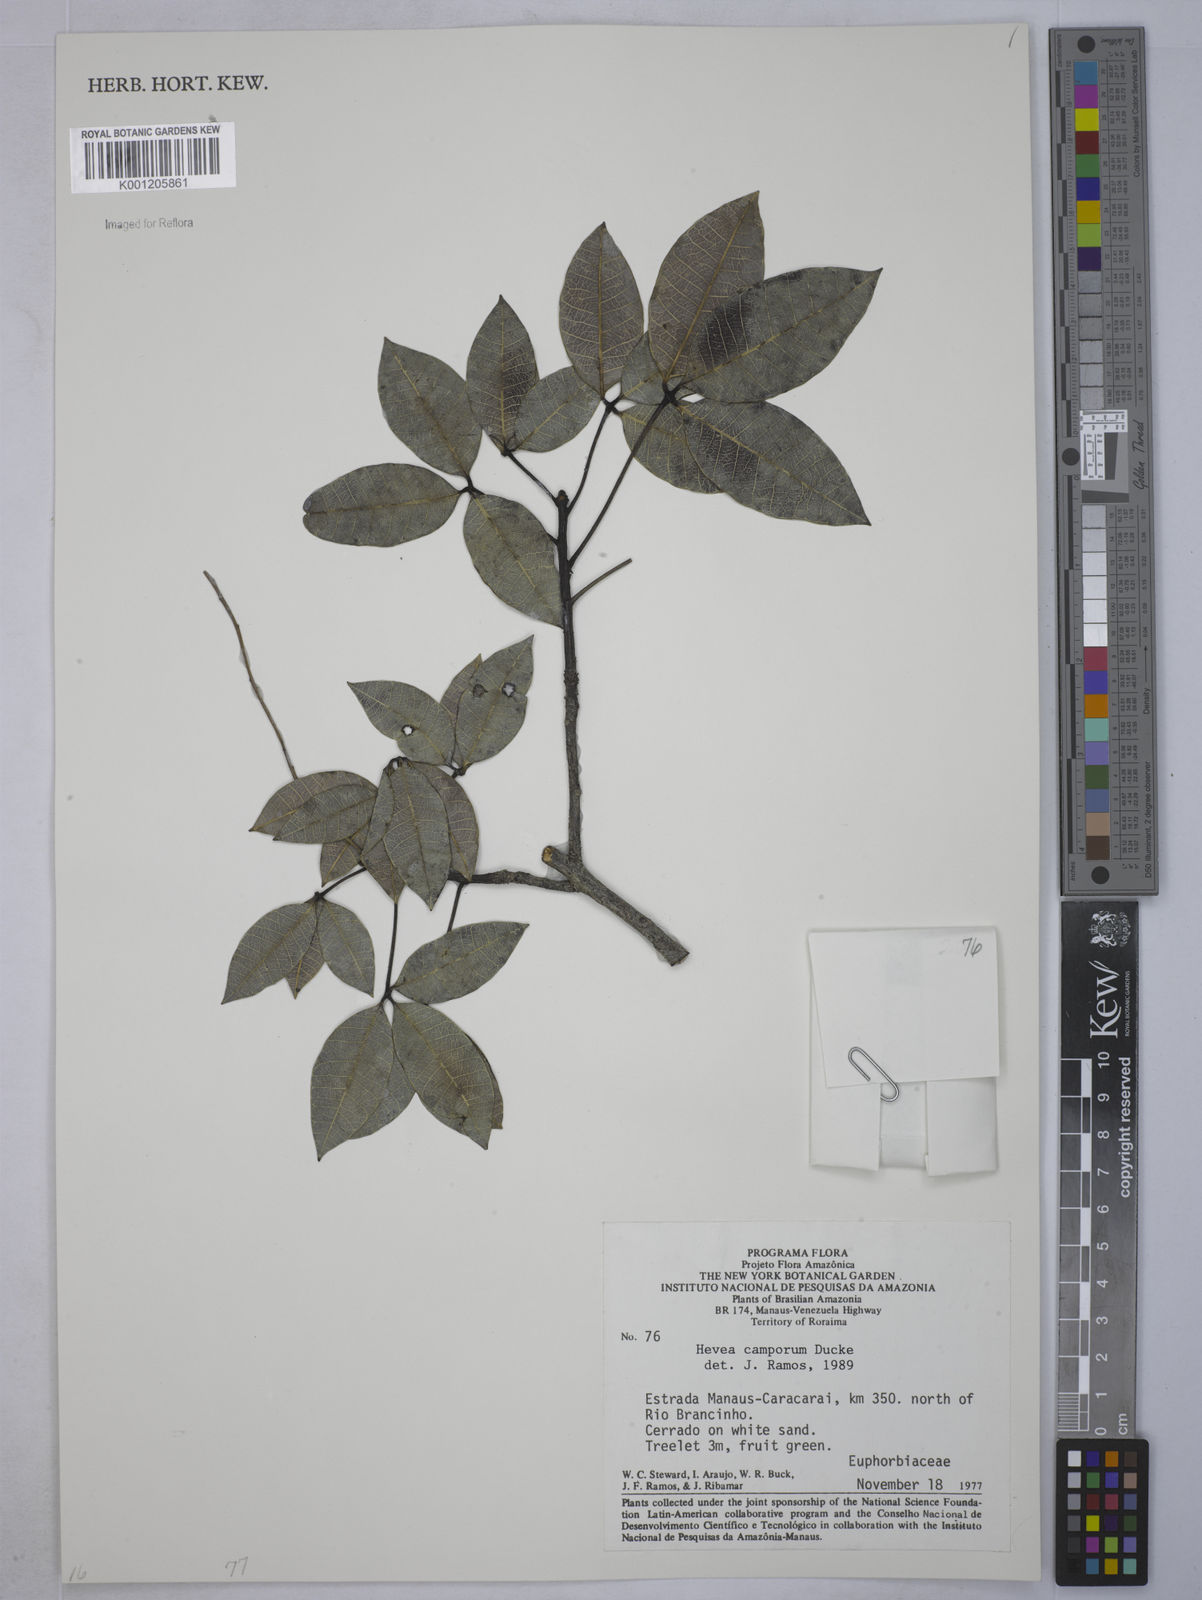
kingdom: Plantae
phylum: Tracheophyta
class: Magnoliopsida
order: Malpighiales
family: Euphorbiaceae
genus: Hevea
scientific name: Hevea camporum
